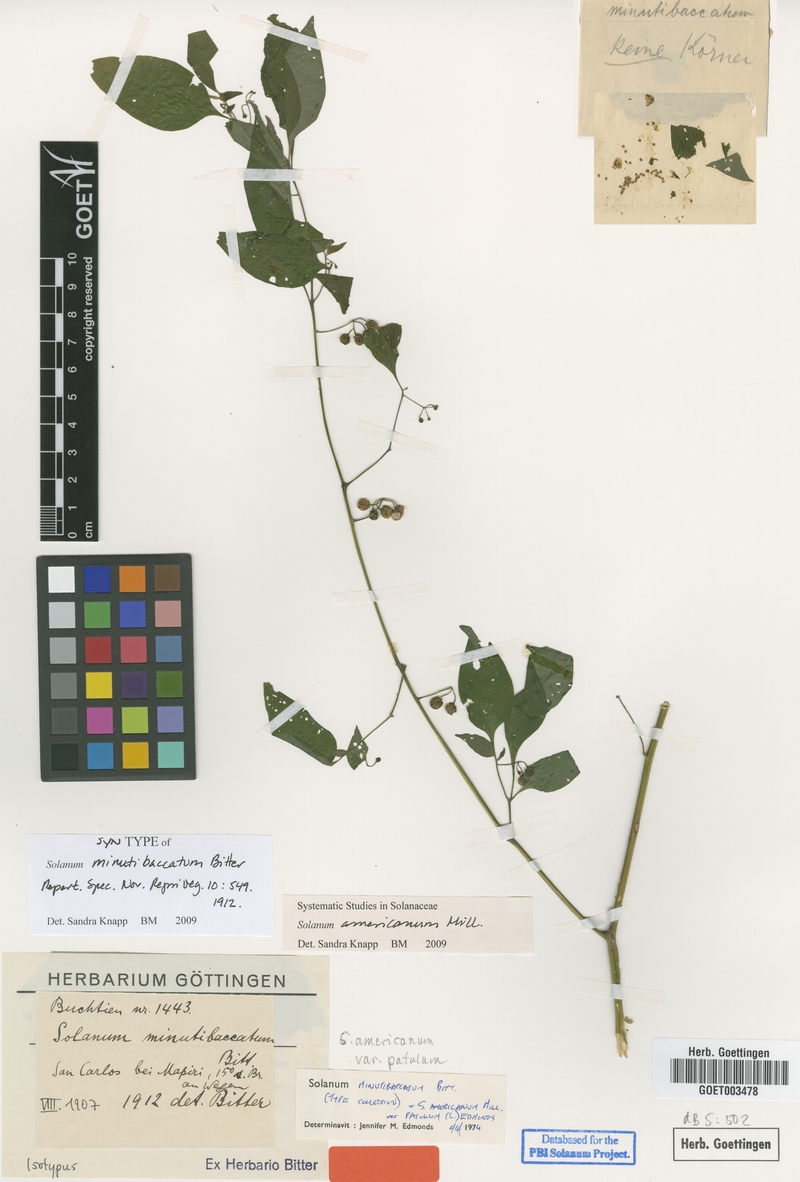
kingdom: Plantae
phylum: Tracheophyta
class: Magnoliopsida
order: Solanales
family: Solanaceae
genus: Solanum
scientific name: Solanum americanum
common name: American black nightshade
